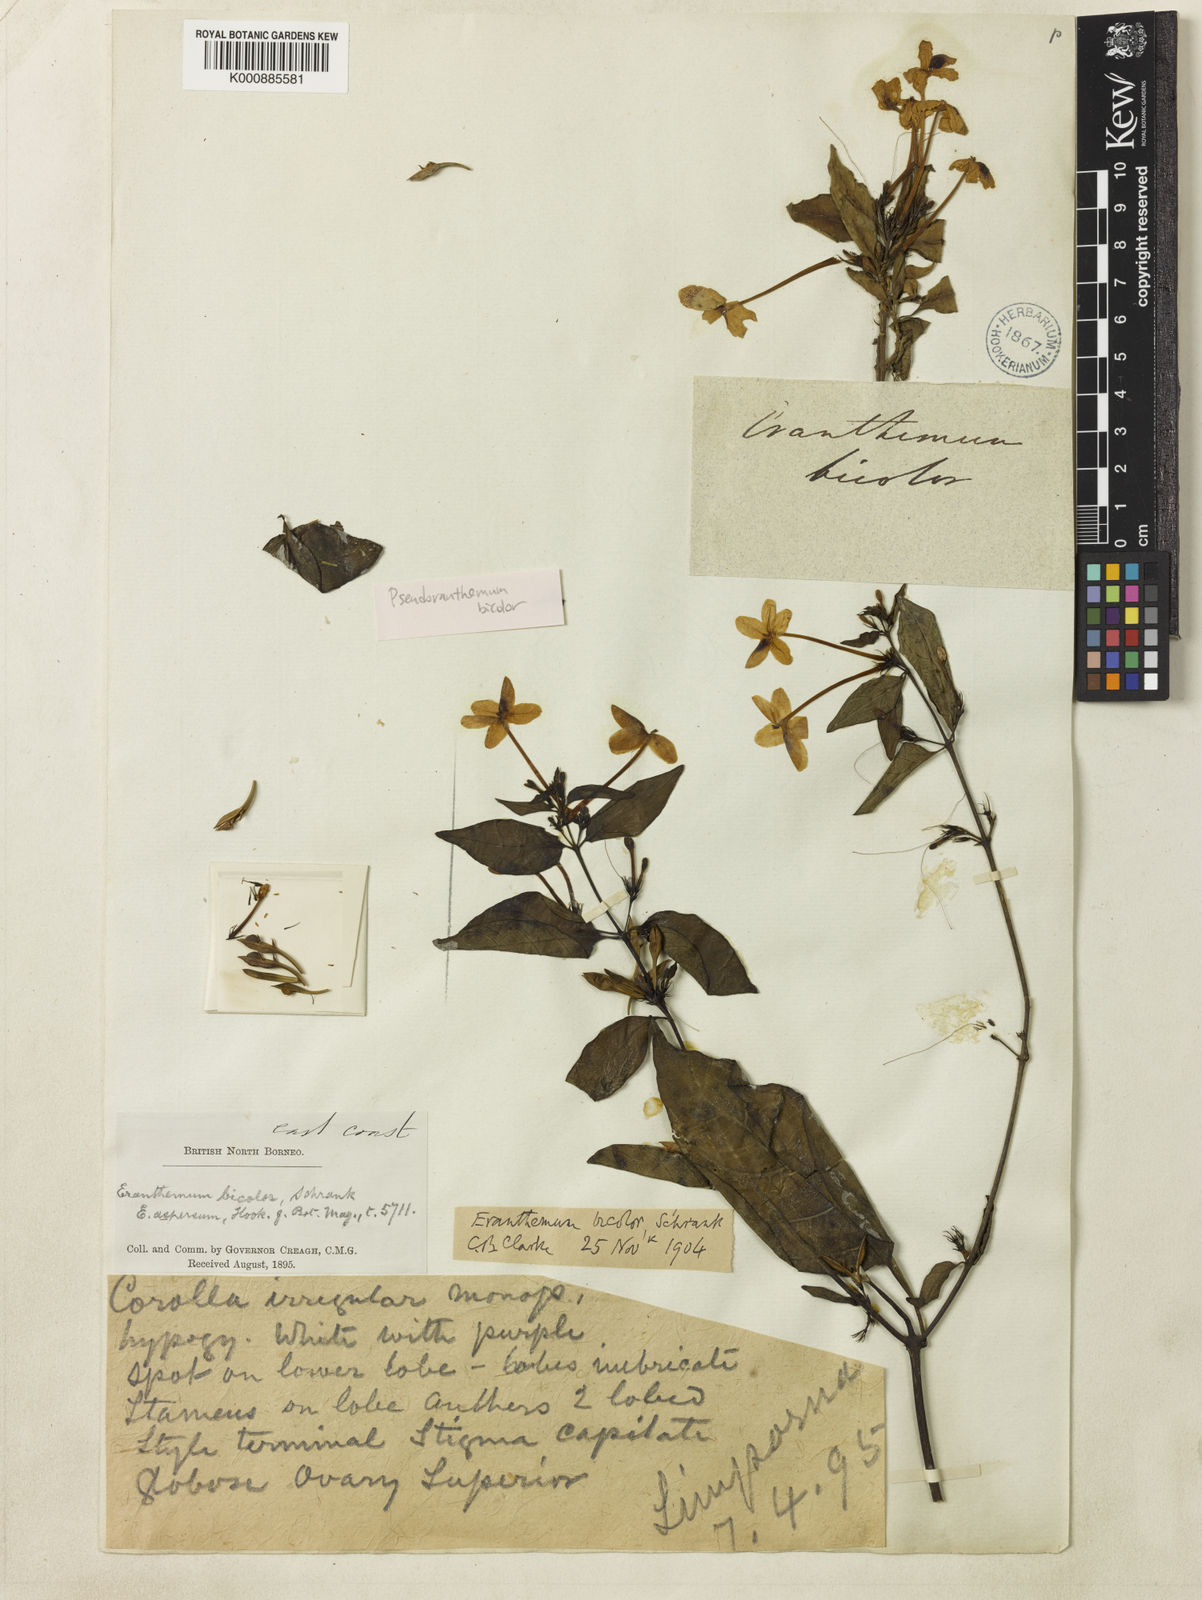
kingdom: Plantae
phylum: Tracheophyta
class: Magnoliopsida
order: Lamiales
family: Acanthaceae
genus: Pseuderanthemum
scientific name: Pseuderanthemum bicolor
